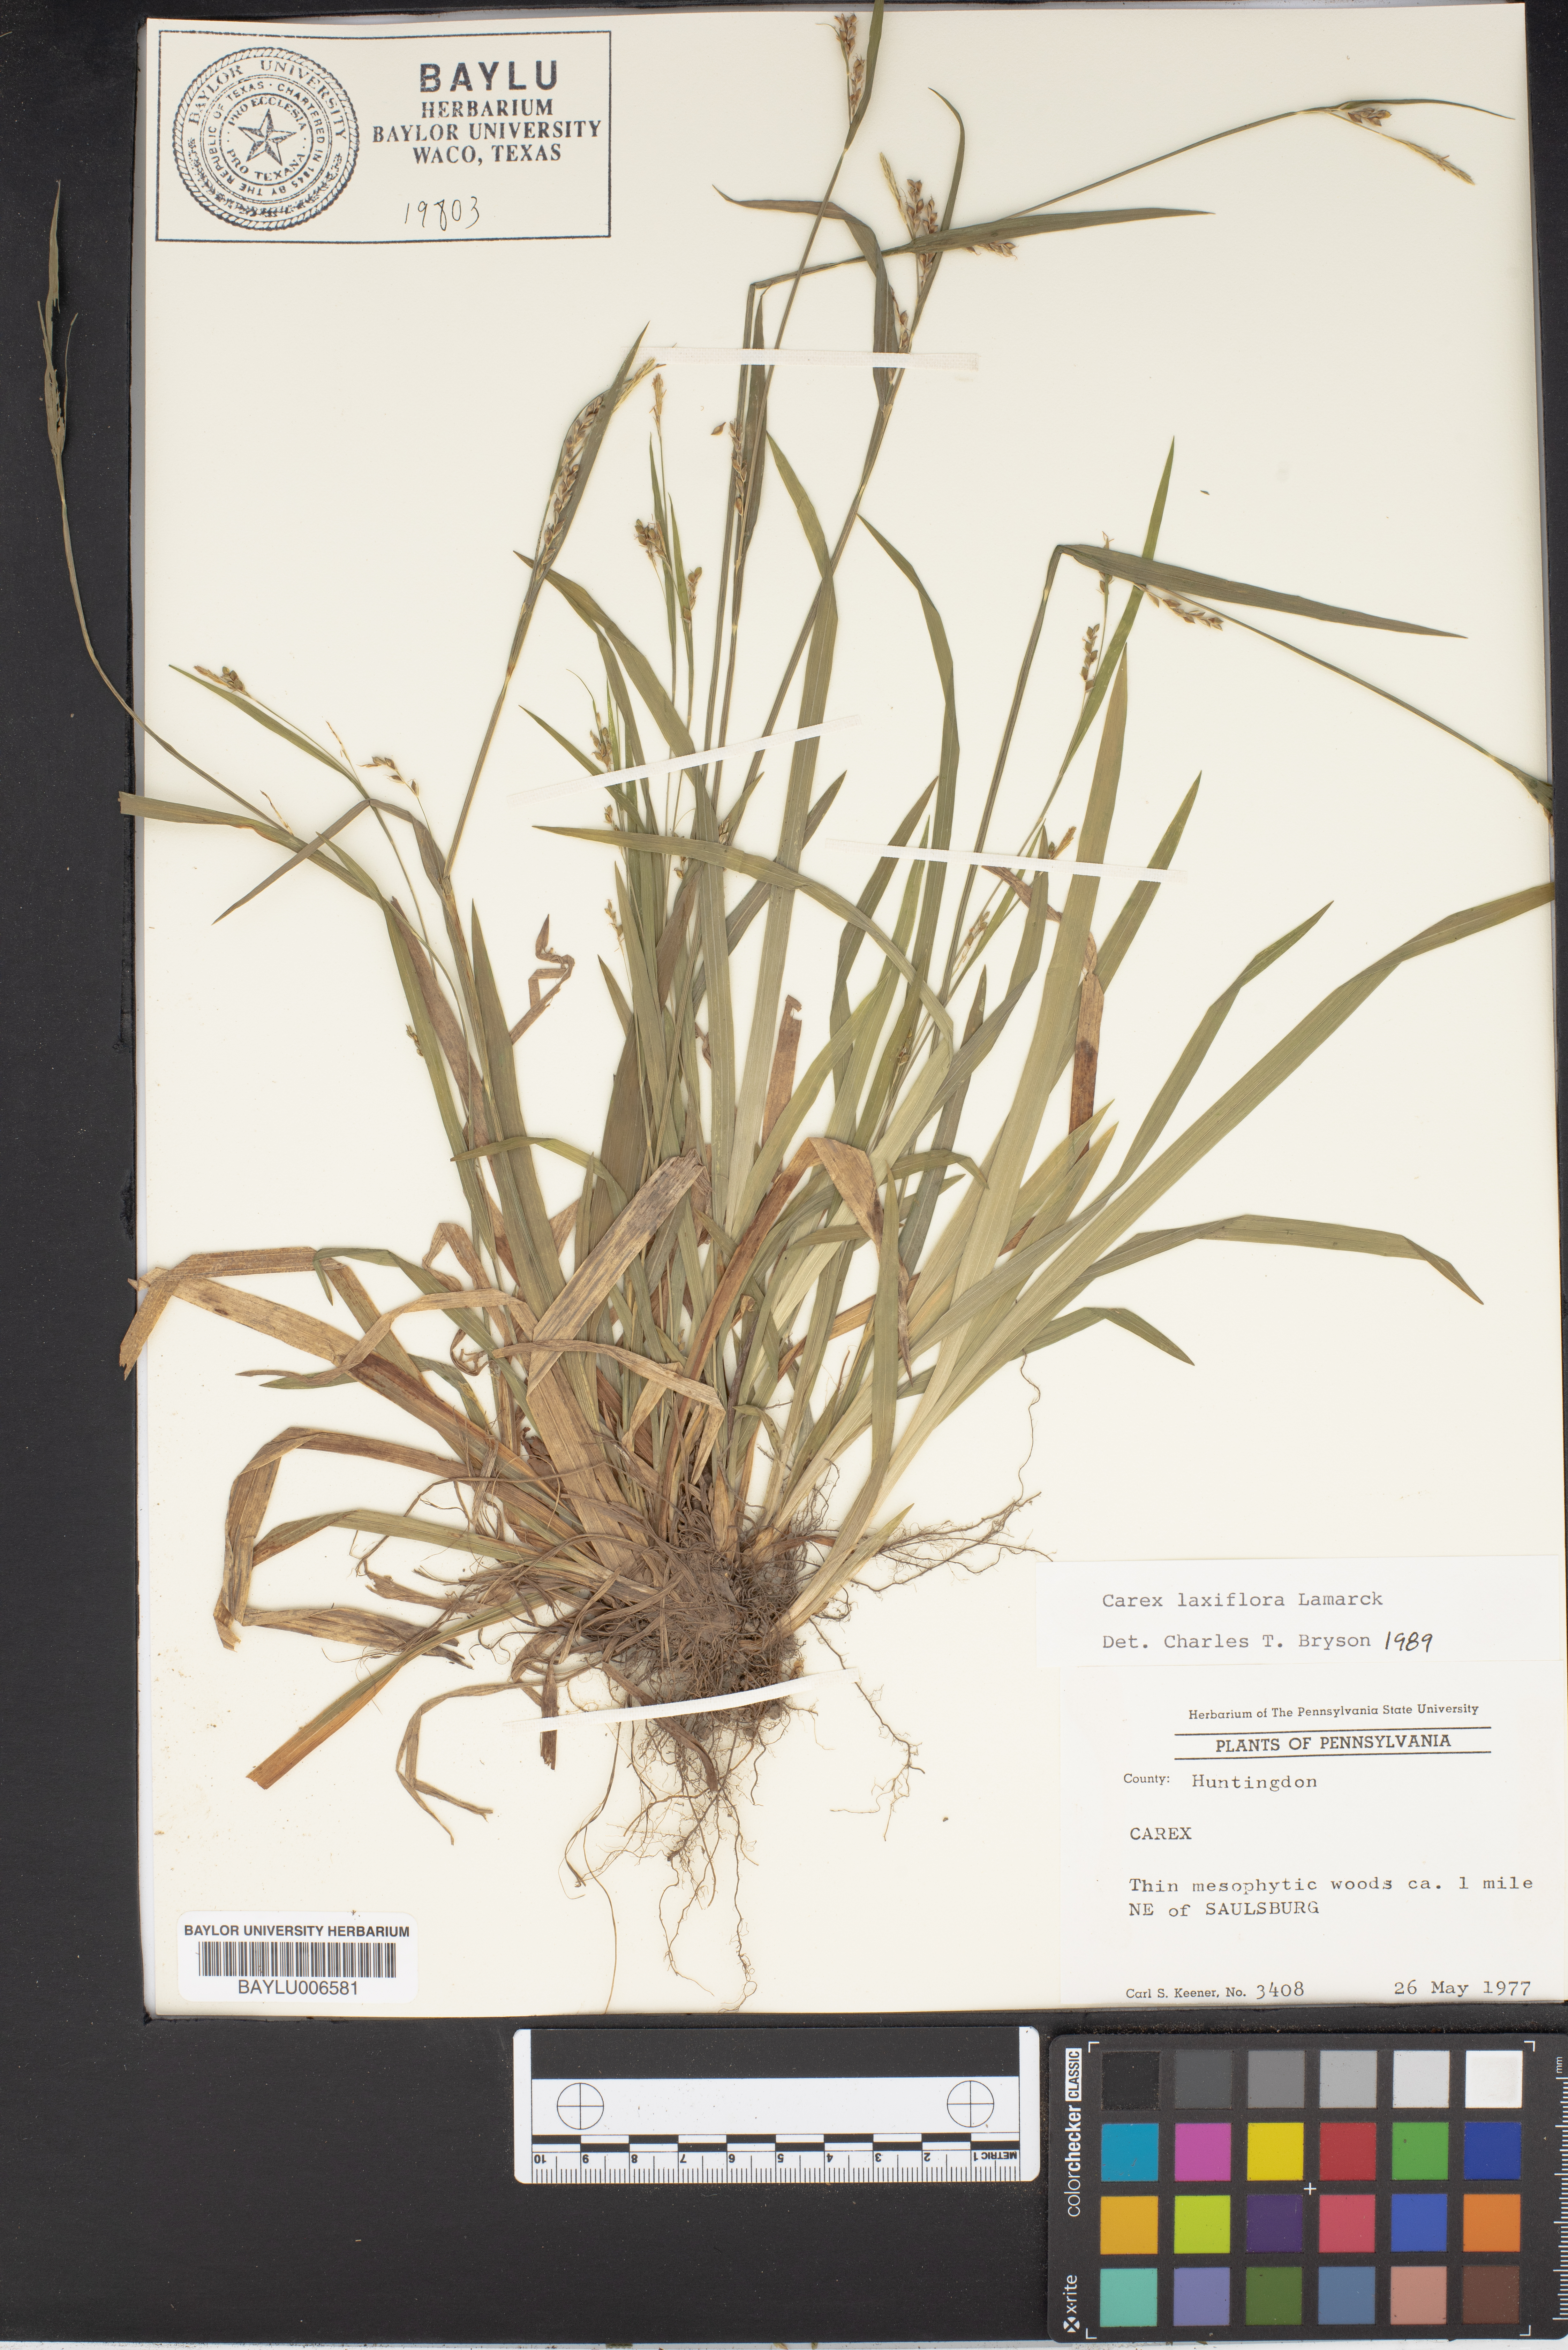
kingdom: Plantae
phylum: Tracheophyta
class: Liliopsida
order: Poales
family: Cyperaceae
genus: Carex
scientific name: Carex laxiflora
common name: Beech wood sedge
